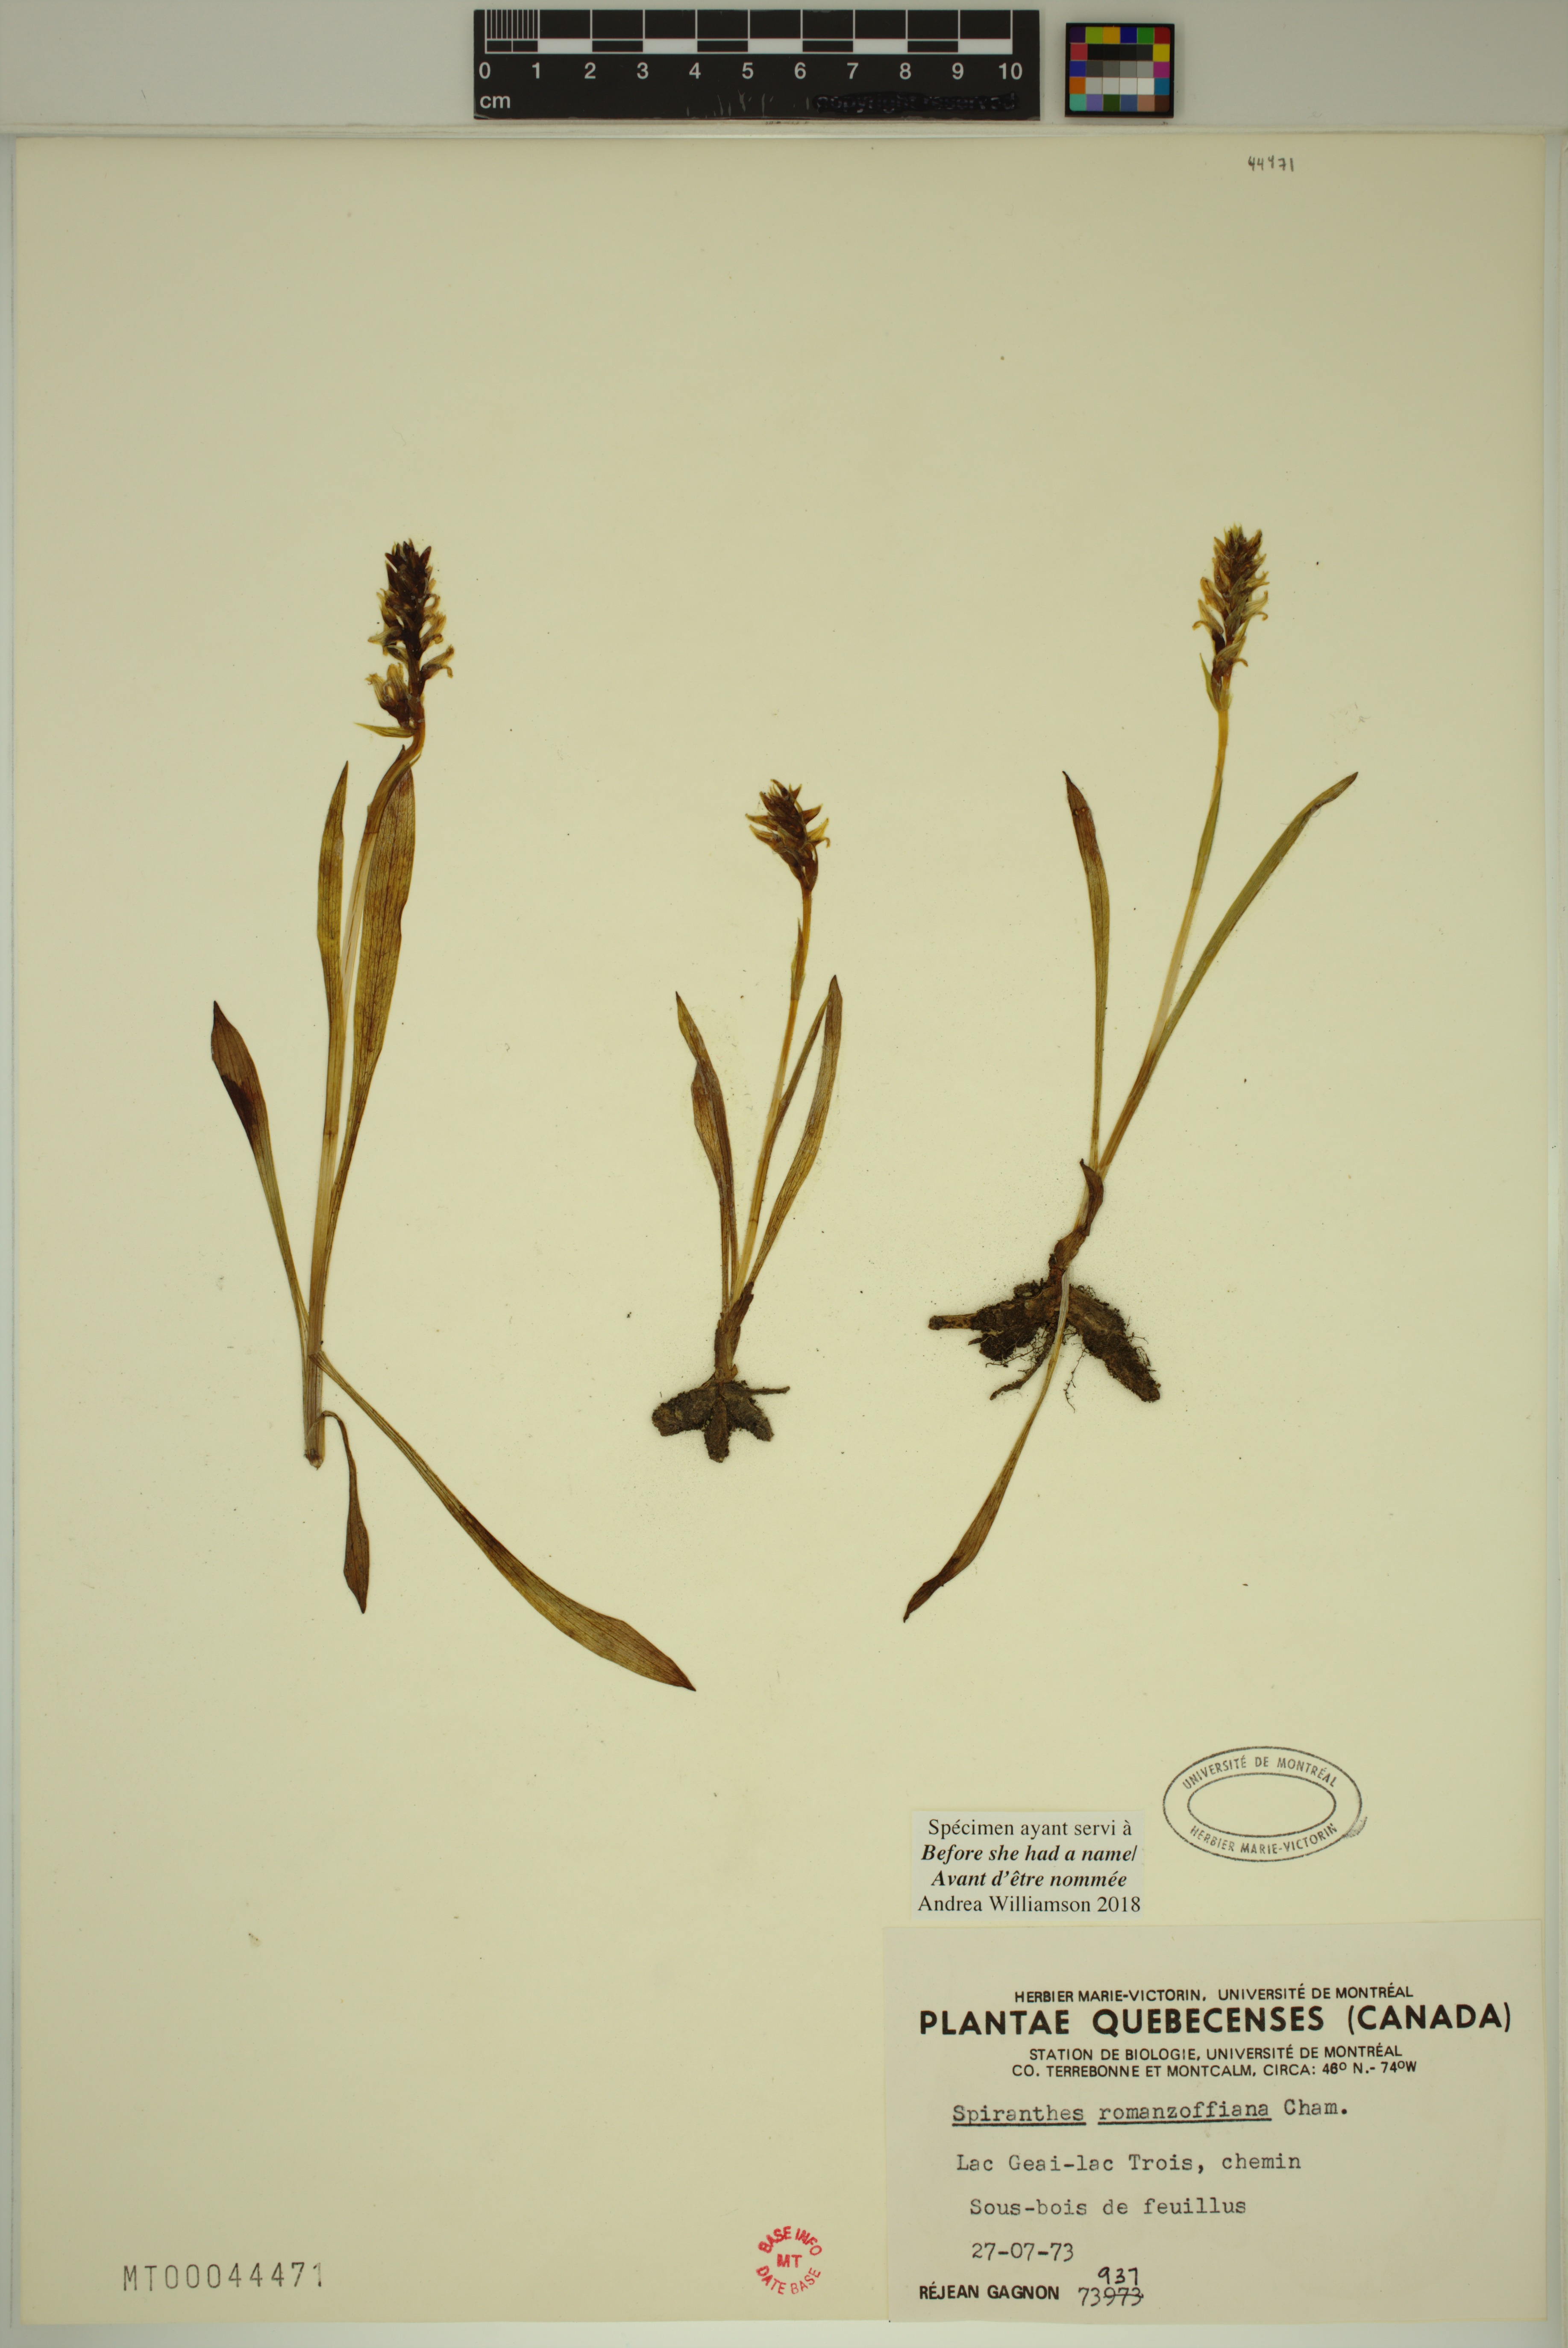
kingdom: Plantae
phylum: Tracheophyta
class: Liliopsida
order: Asparagales
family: Orchidaceae
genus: Spiranthes
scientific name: Spiranthes romanzoffiana
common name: Irish lady's-tresses
